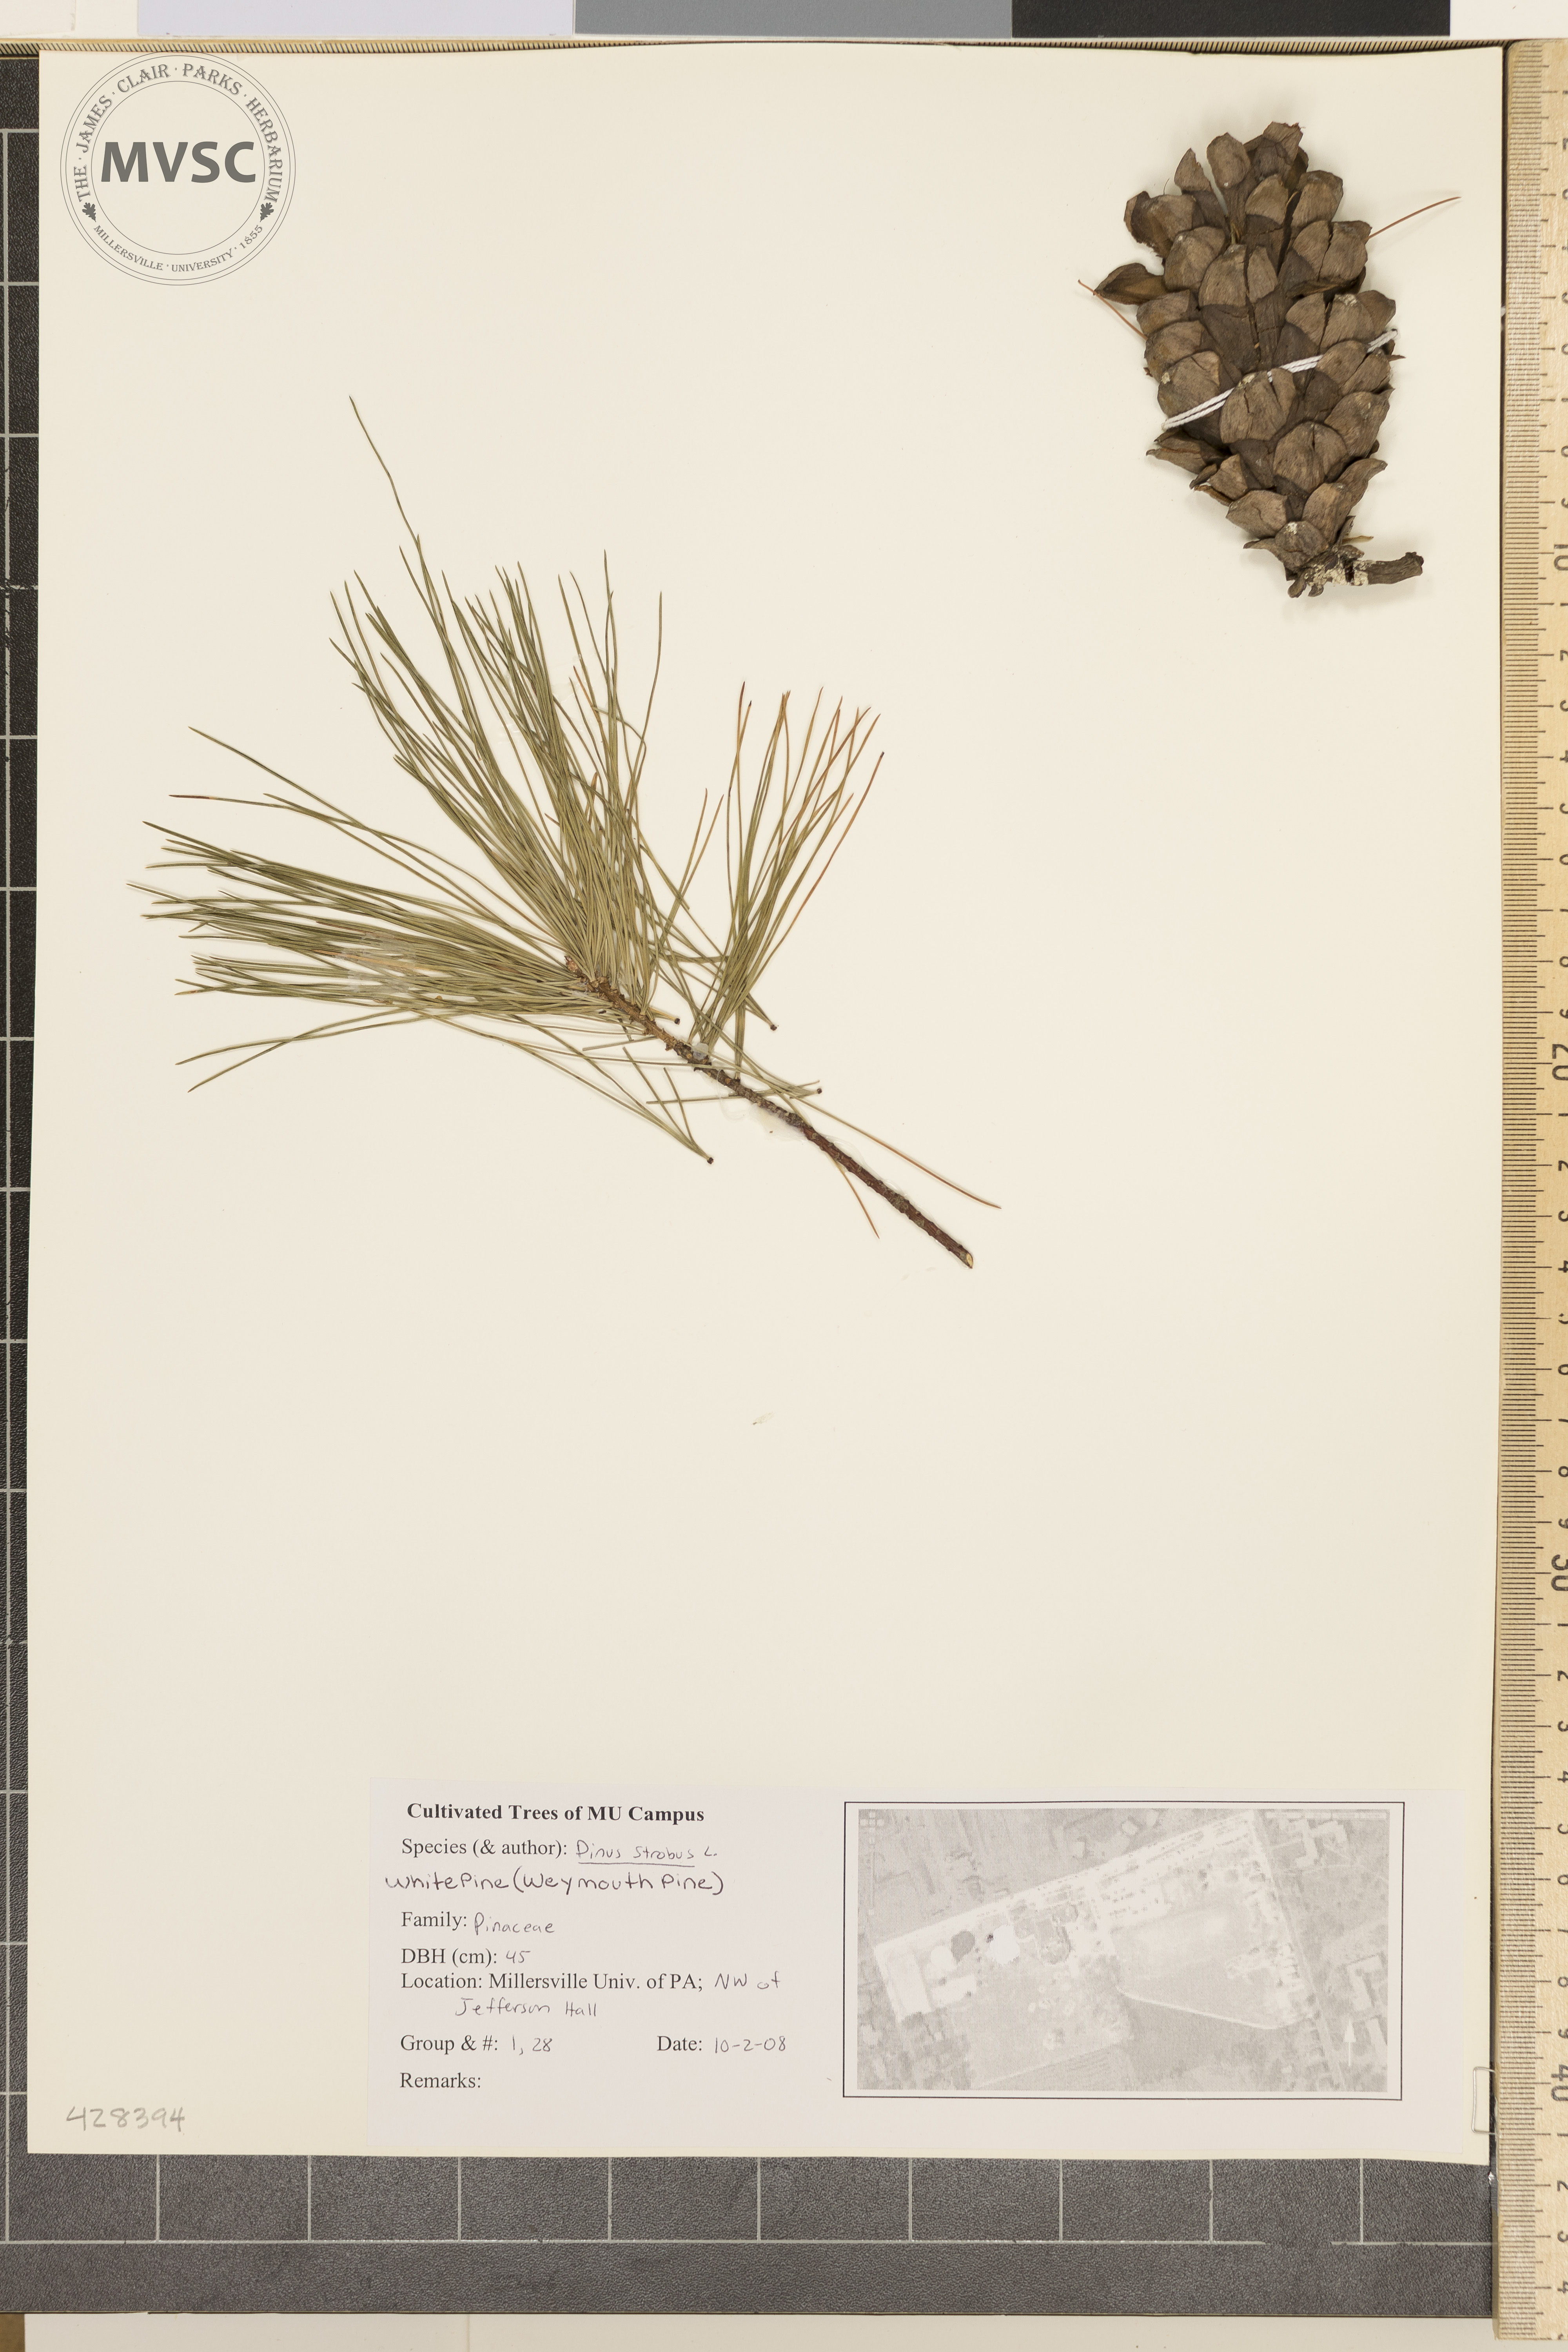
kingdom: Plantae
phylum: Tracheophyta
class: Pinopsida
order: Pinales
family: Pinaceae
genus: Pinus
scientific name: Pinus strobus
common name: Eastern White Pine
